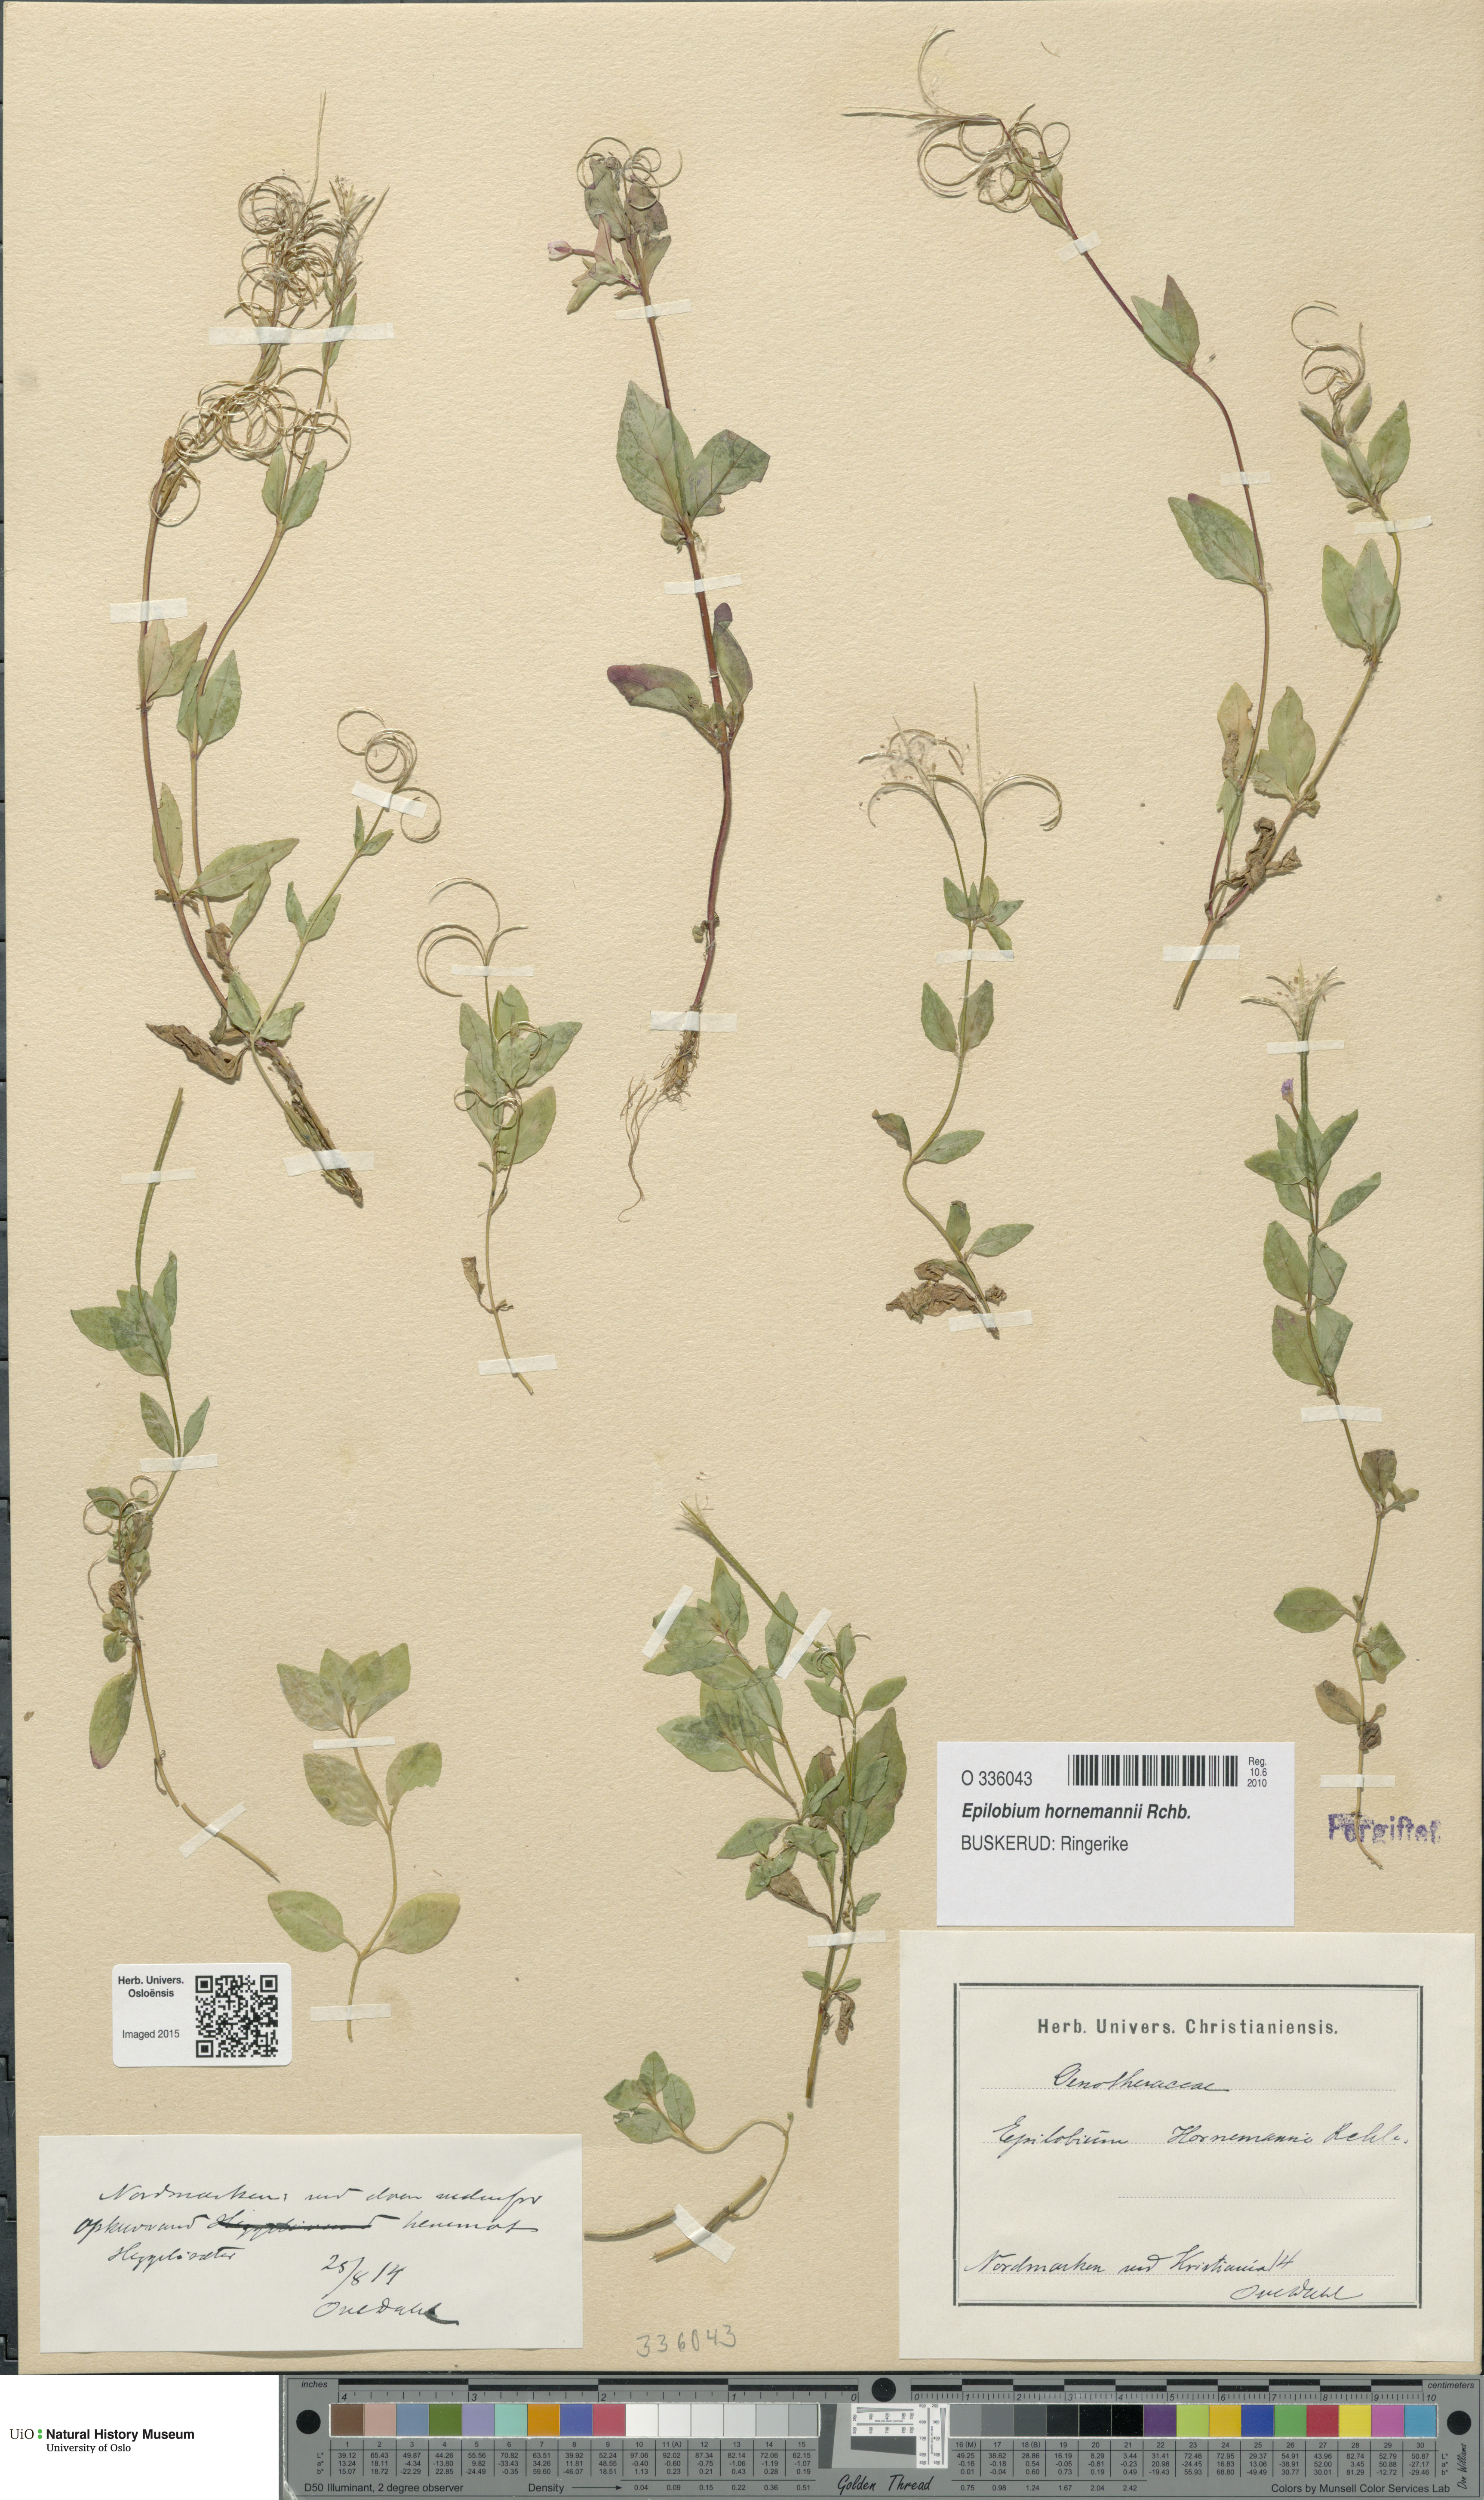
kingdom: Plantae
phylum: Tracheophyta
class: Magnoliopsida
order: Myrtales
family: Onagraceae
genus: Epilobium
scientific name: Epilobium hornemannii
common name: Hornemann's willowherb
